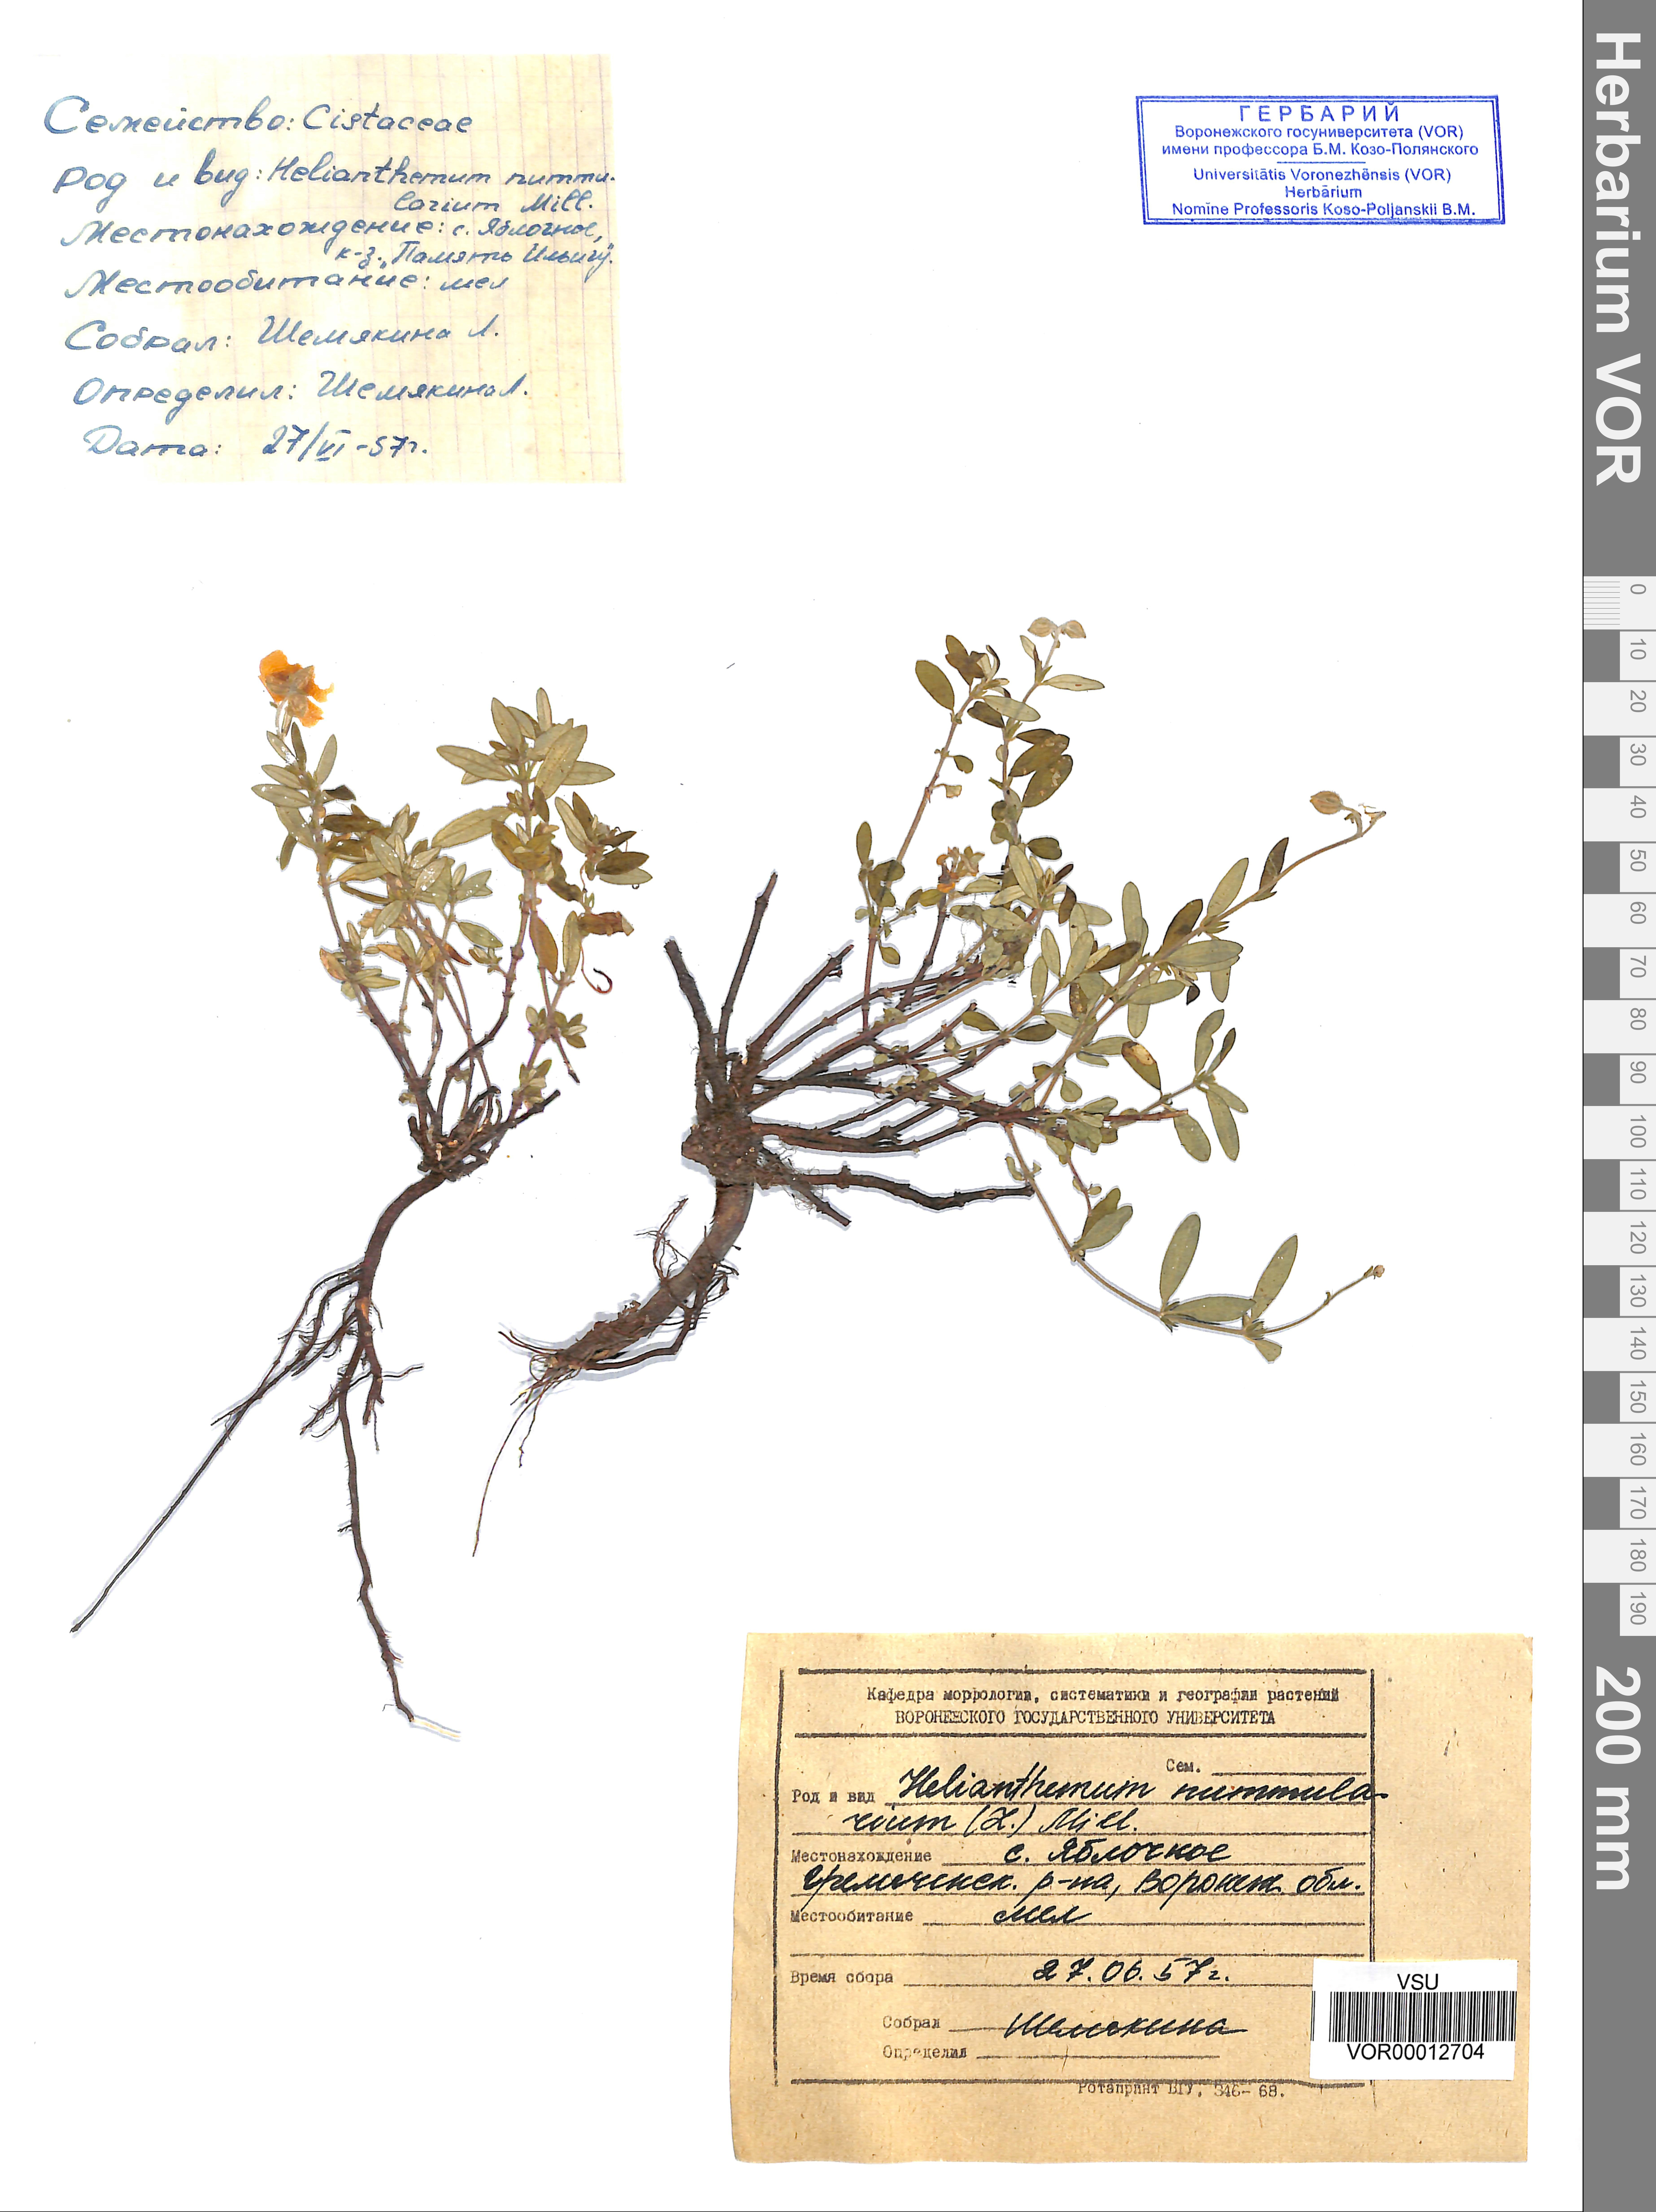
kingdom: Plantae
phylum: Tracheophyta
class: Magnoliopsida
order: Malvales
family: Cistaceae
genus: Helianthemum
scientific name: Helianthemum nummularium
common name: Common rock-rose
